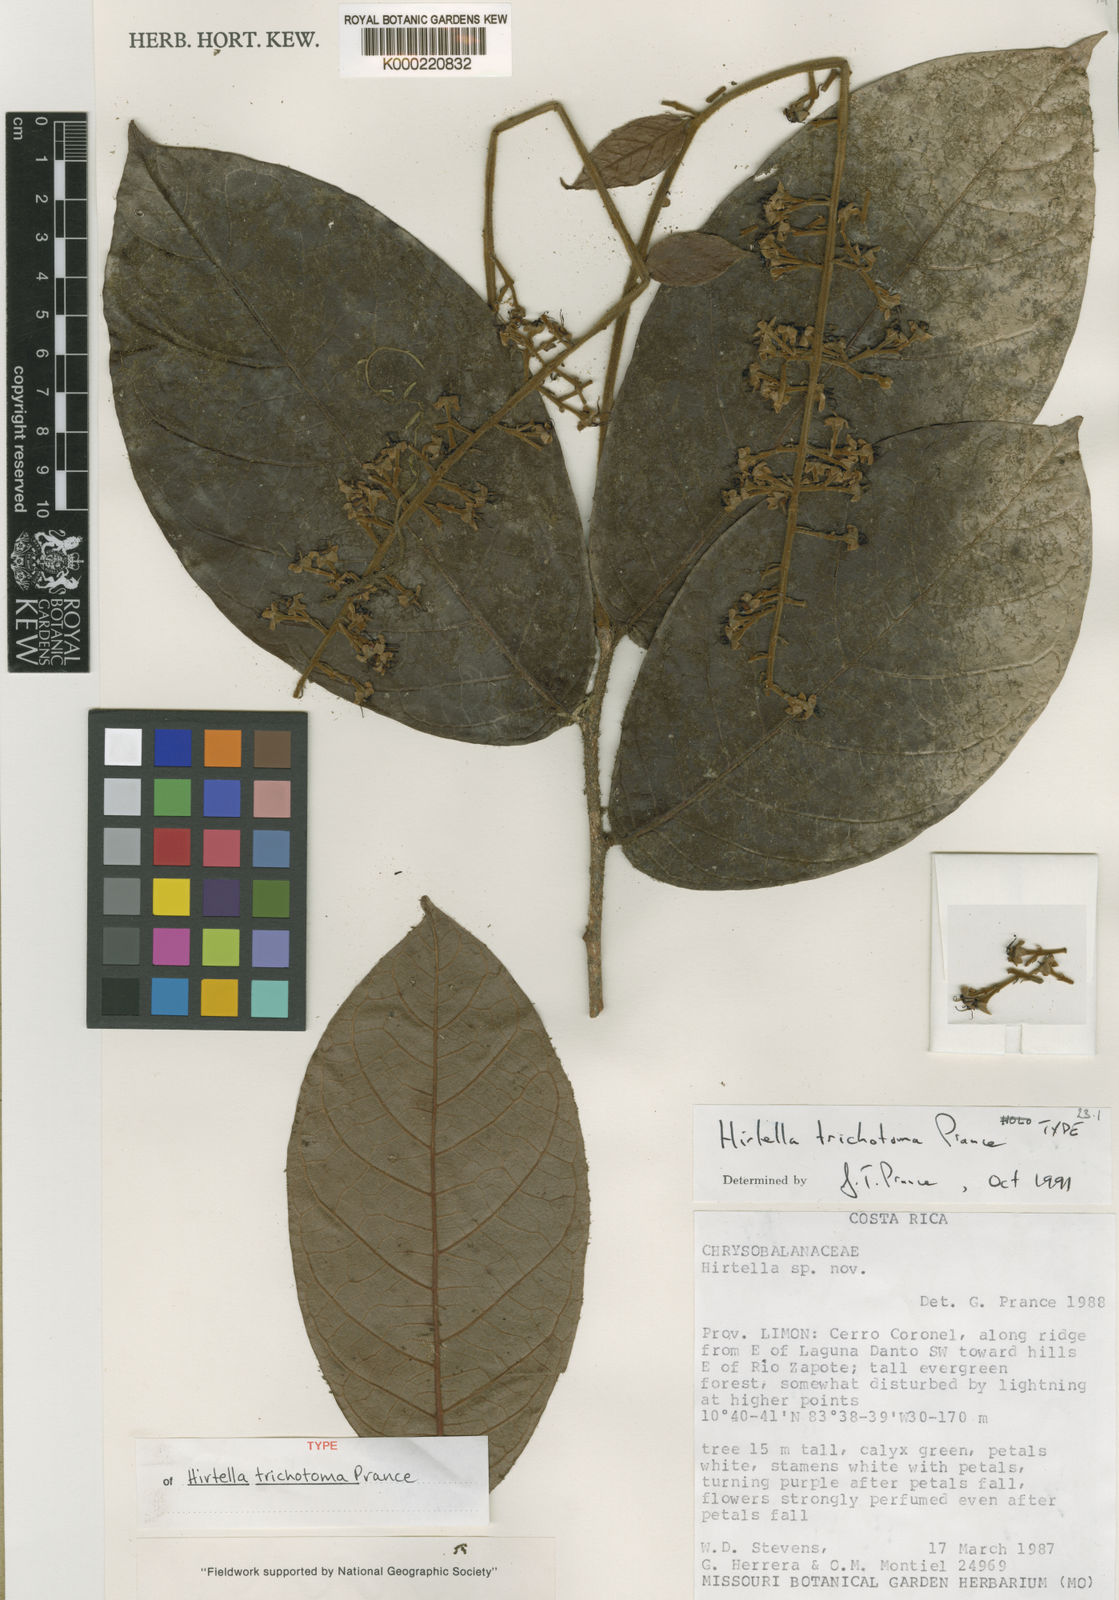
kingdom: Plantae
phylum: Tracheophyta
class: Magnoliopsida
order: Malpighiales
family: Chrysobalanaceae
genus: Hirtella
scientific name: Hirtella trichotoma
